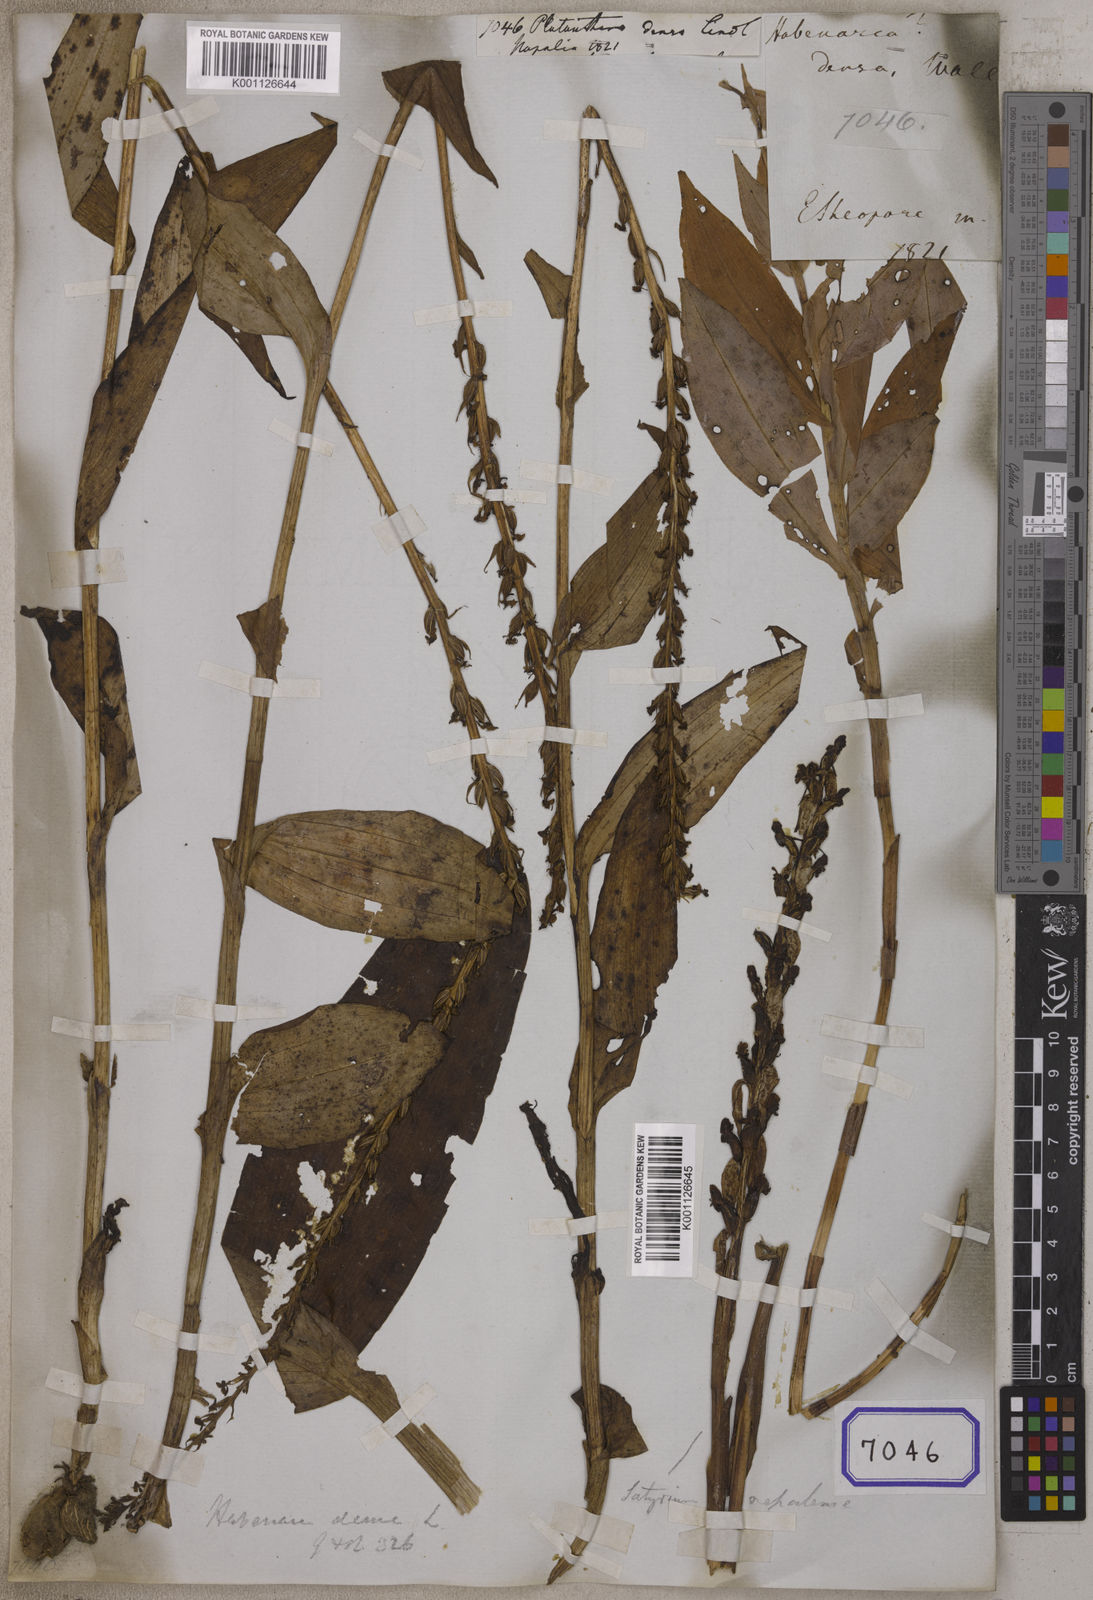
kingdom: Plantae
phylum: Tracheophyta
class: Liliopsida
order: Asparagales
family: Orchidaceae
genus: Platanthera
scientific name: Platanthera
